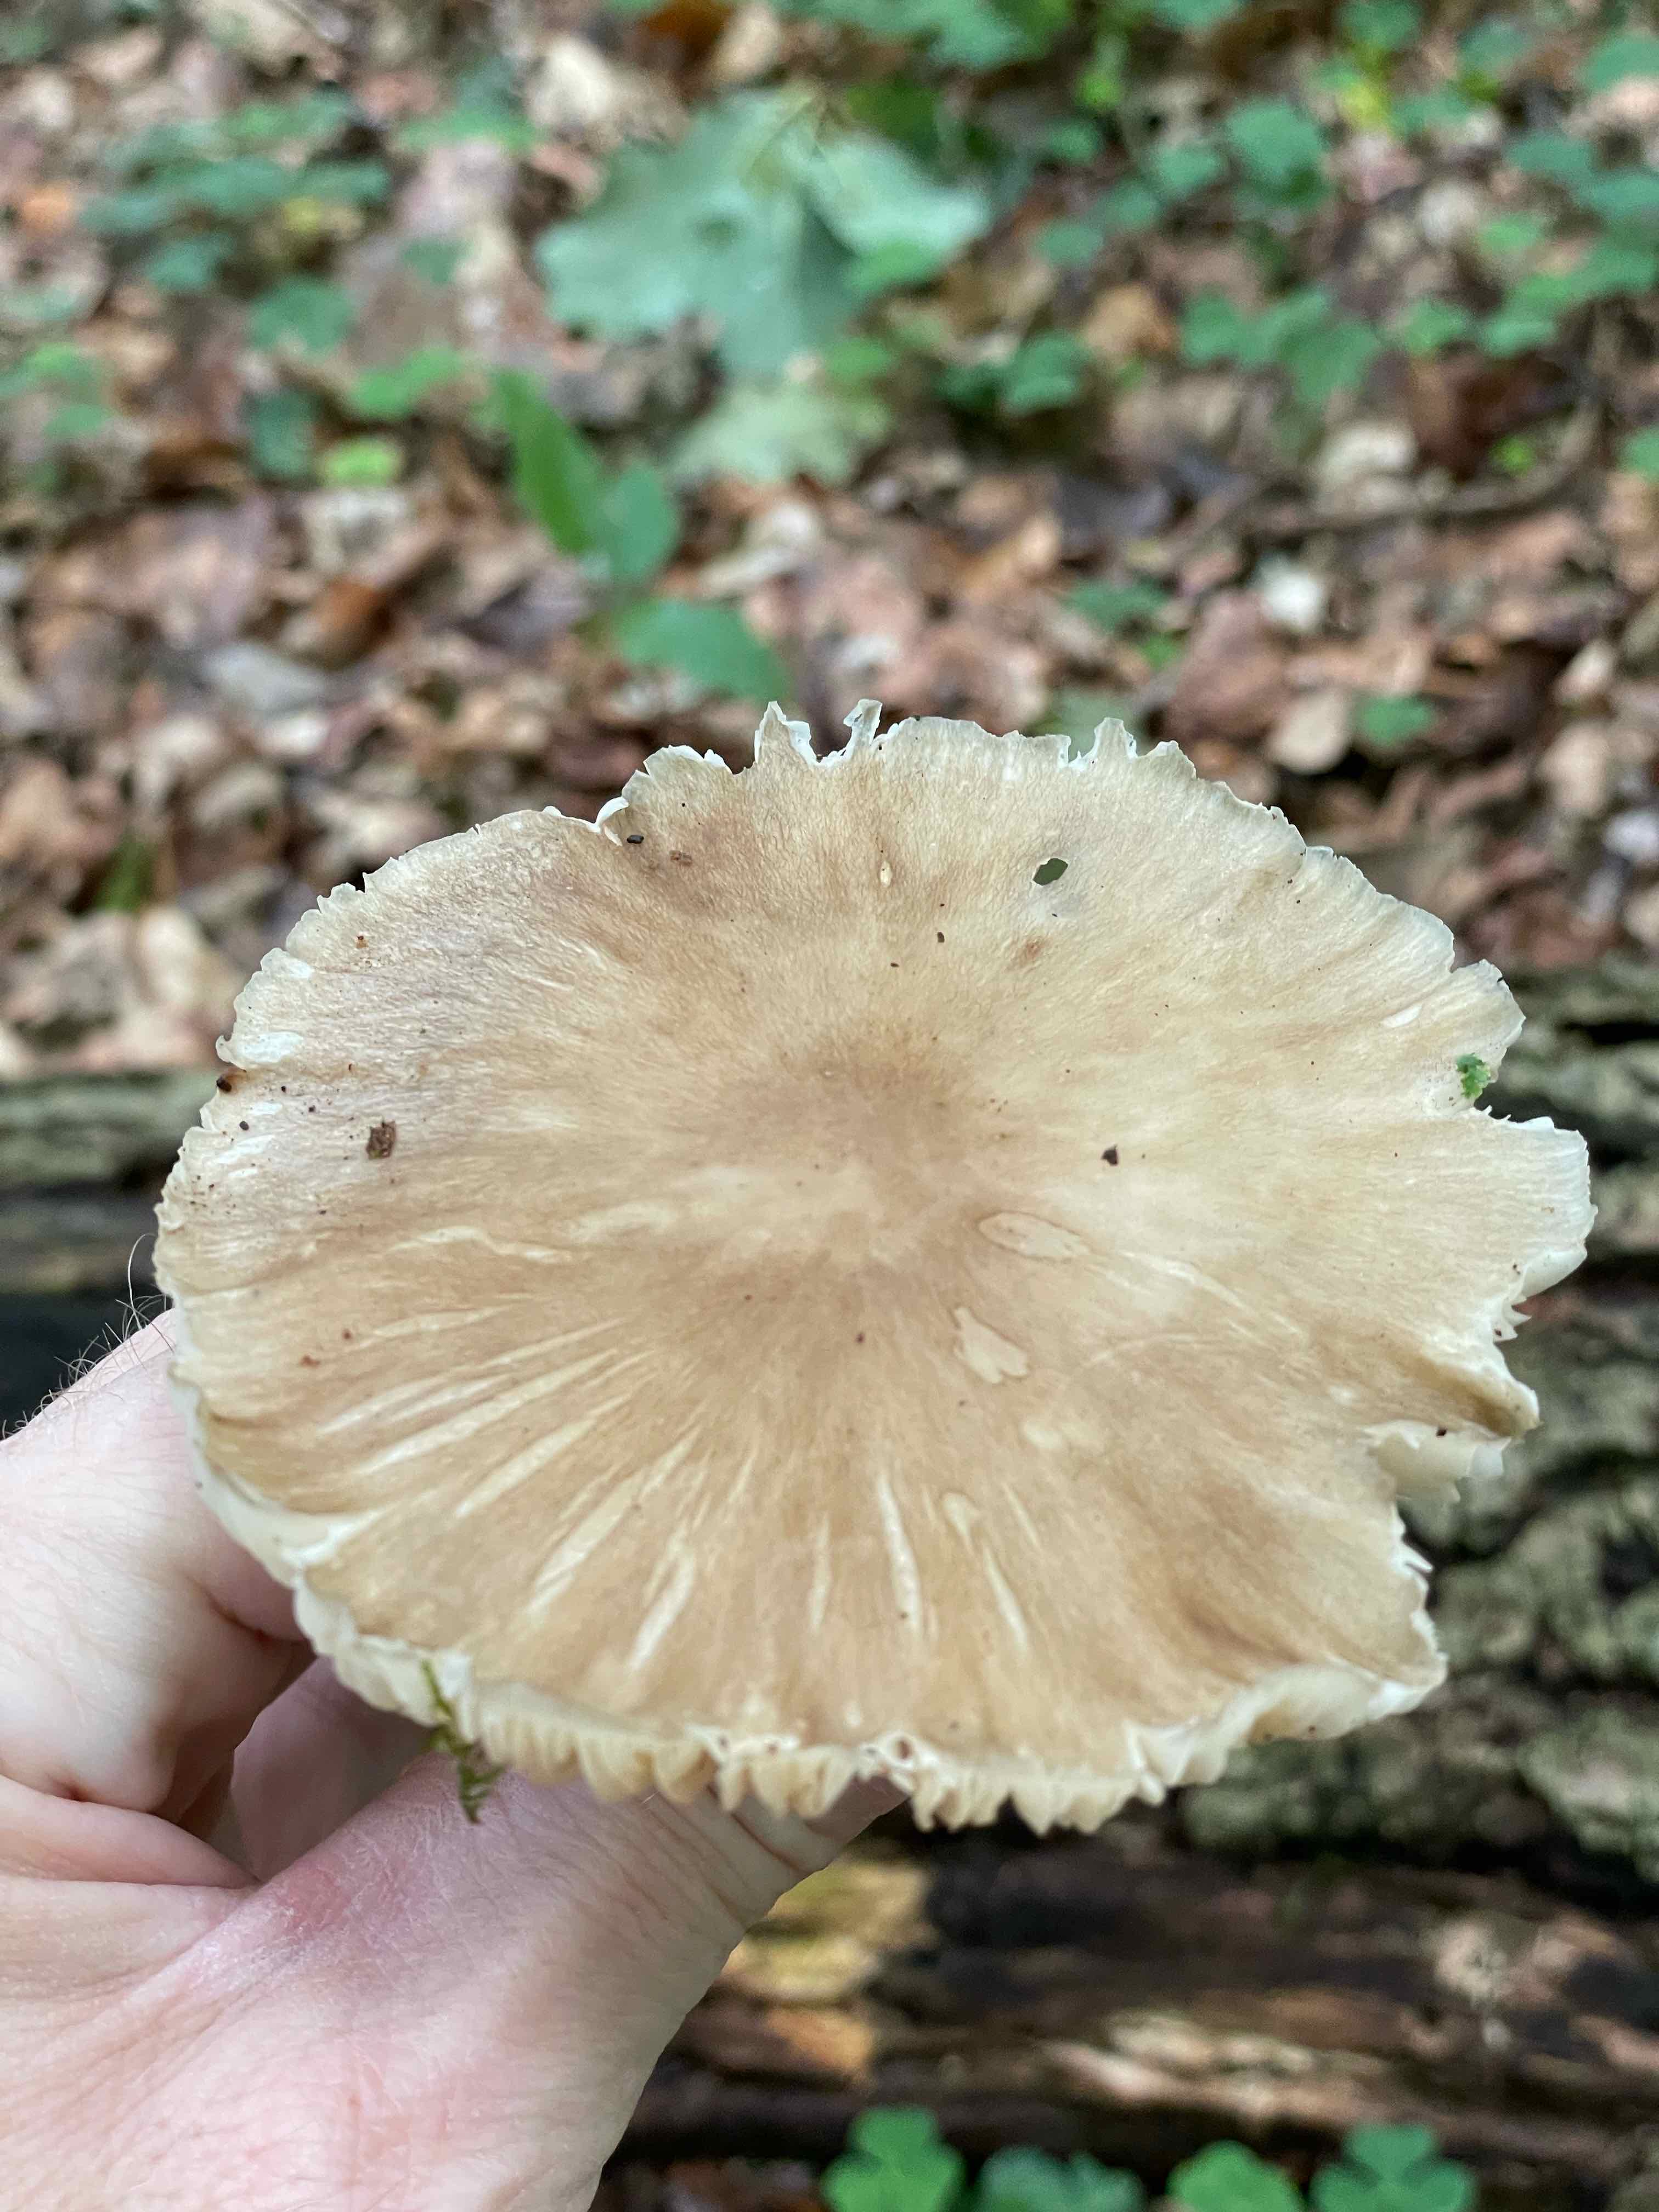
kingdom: Fungi
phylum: Basidiomycota
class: Agaricomycetes
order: Agaricales
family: Tricholomataceae
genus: Megacollybia
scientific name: Megacollybia platyphylla
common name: bredbladet væbnerhat
